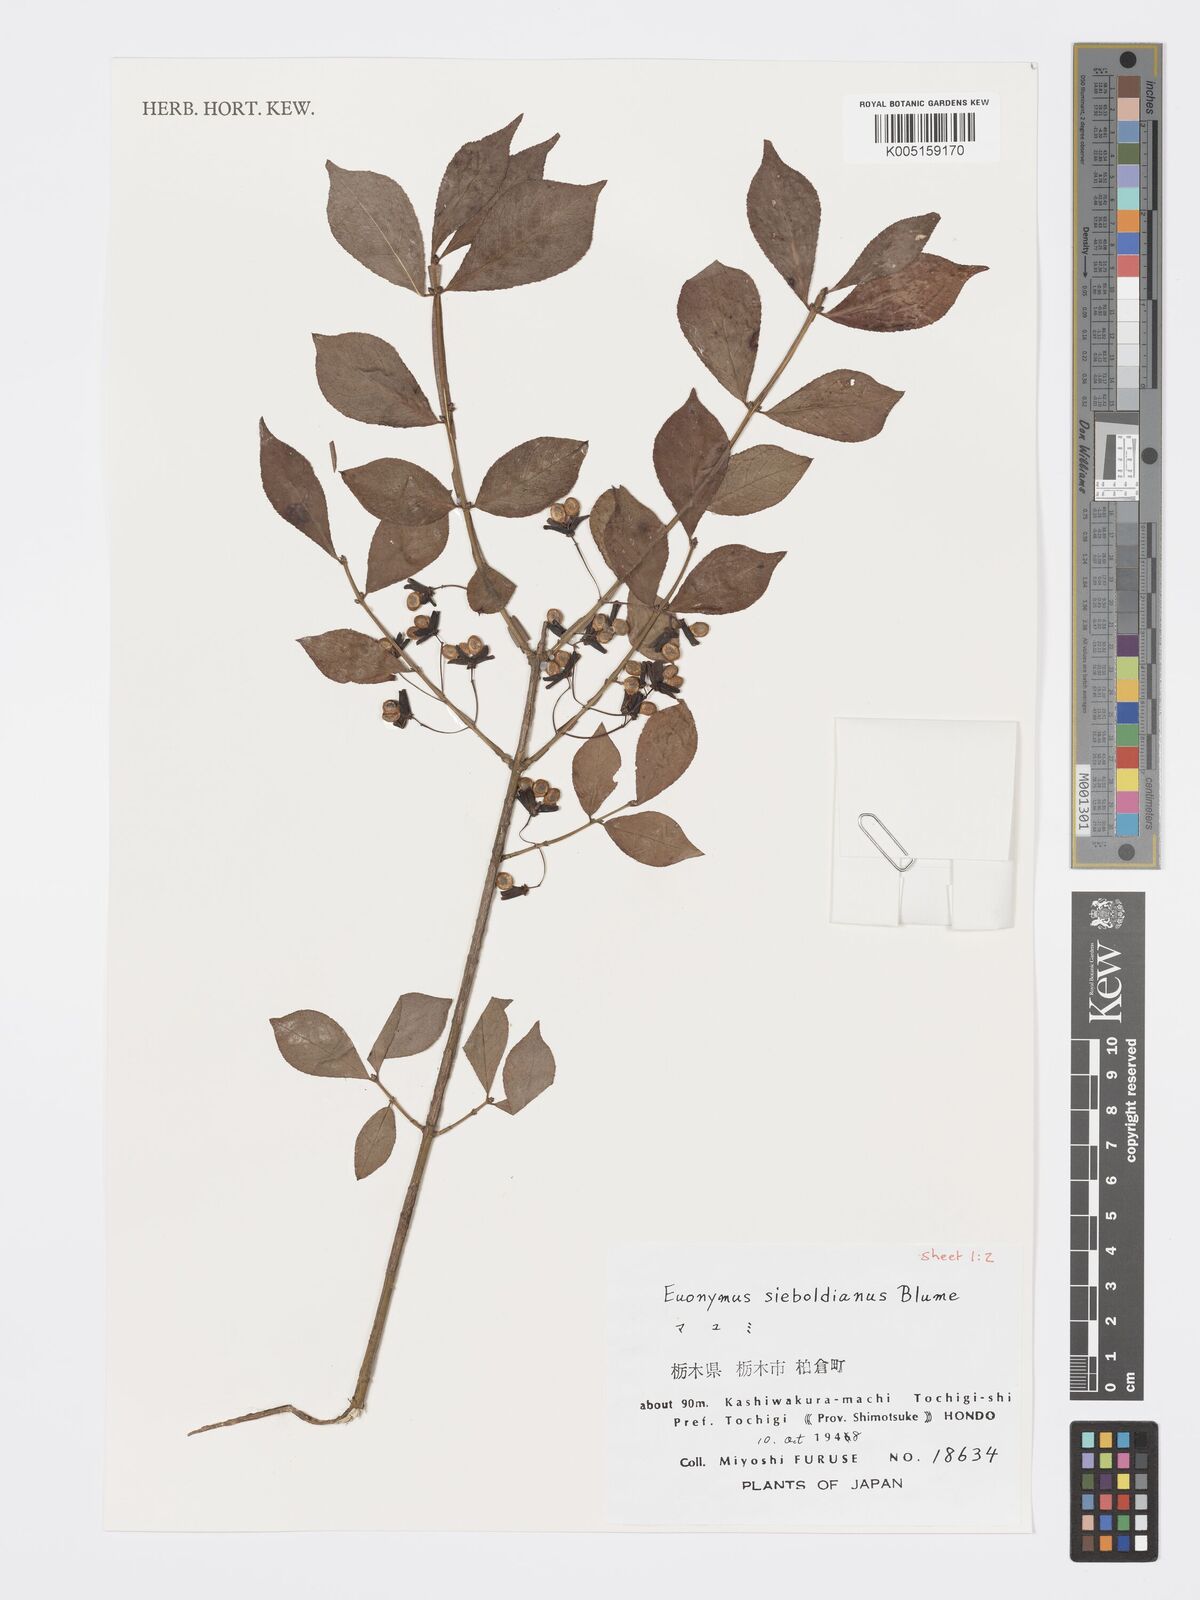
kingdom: Plantae
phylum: Tracheophyta
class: Magnoliopsida
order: Celastrales
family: Celastraceae
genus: Euonymus
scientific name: Euonymus hamiltonianus
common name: Hamilton's spindletree
